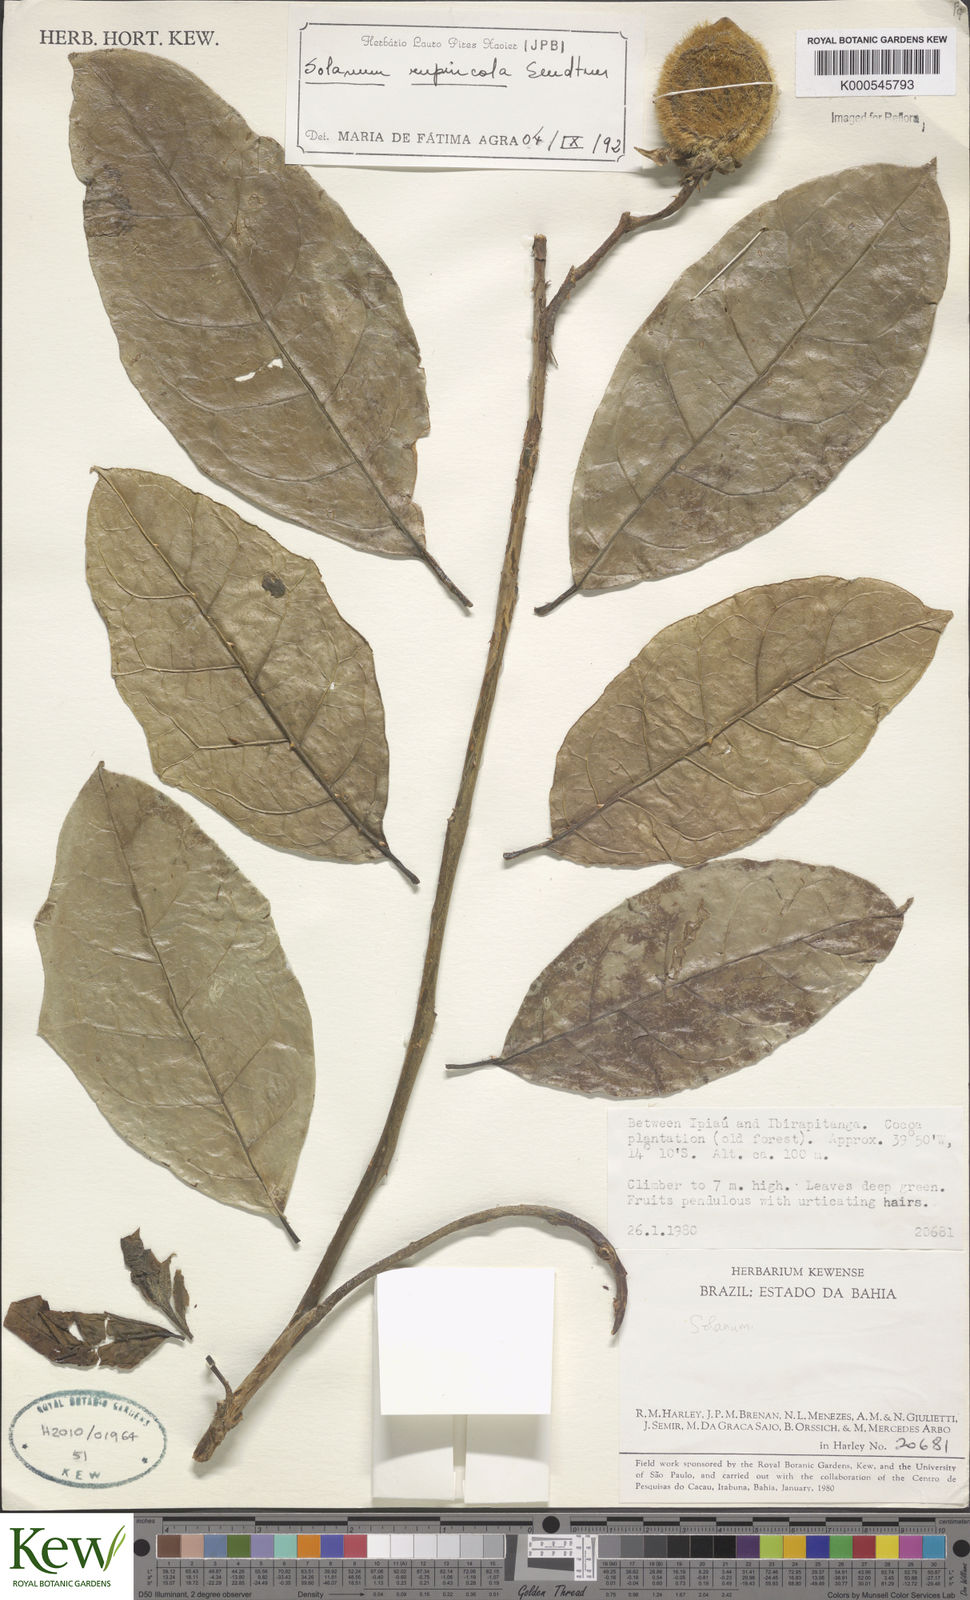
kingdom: Plantae
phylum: Tracheophyta
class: Magnoliopsida
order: Solanales
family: Solanaceae
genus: Solanum
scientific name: Solanum rupincola
